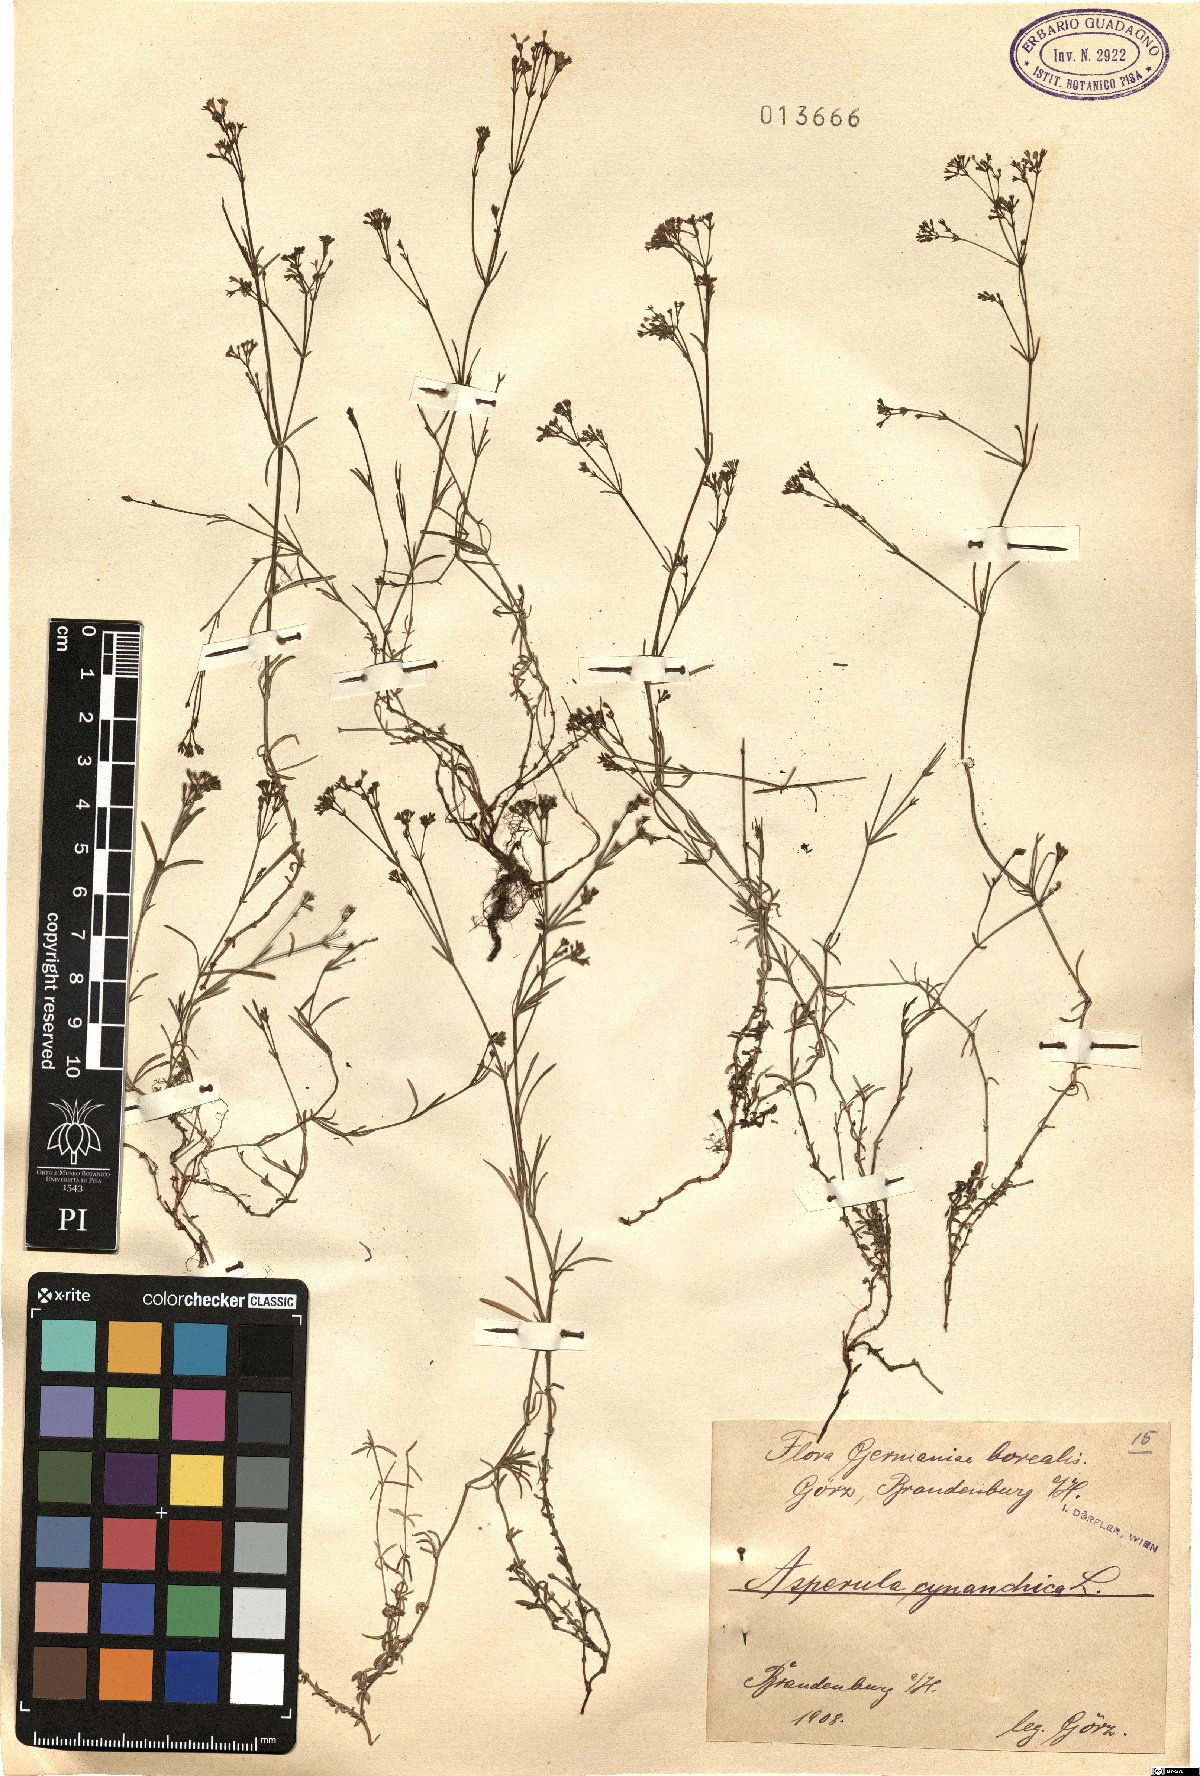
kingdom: Plantae
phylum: Tracheophyta
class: Magnoliopsida
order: Gentianales
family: Rubiaceae
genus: Cynanchica
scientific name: Cynanchica pyrenaica
